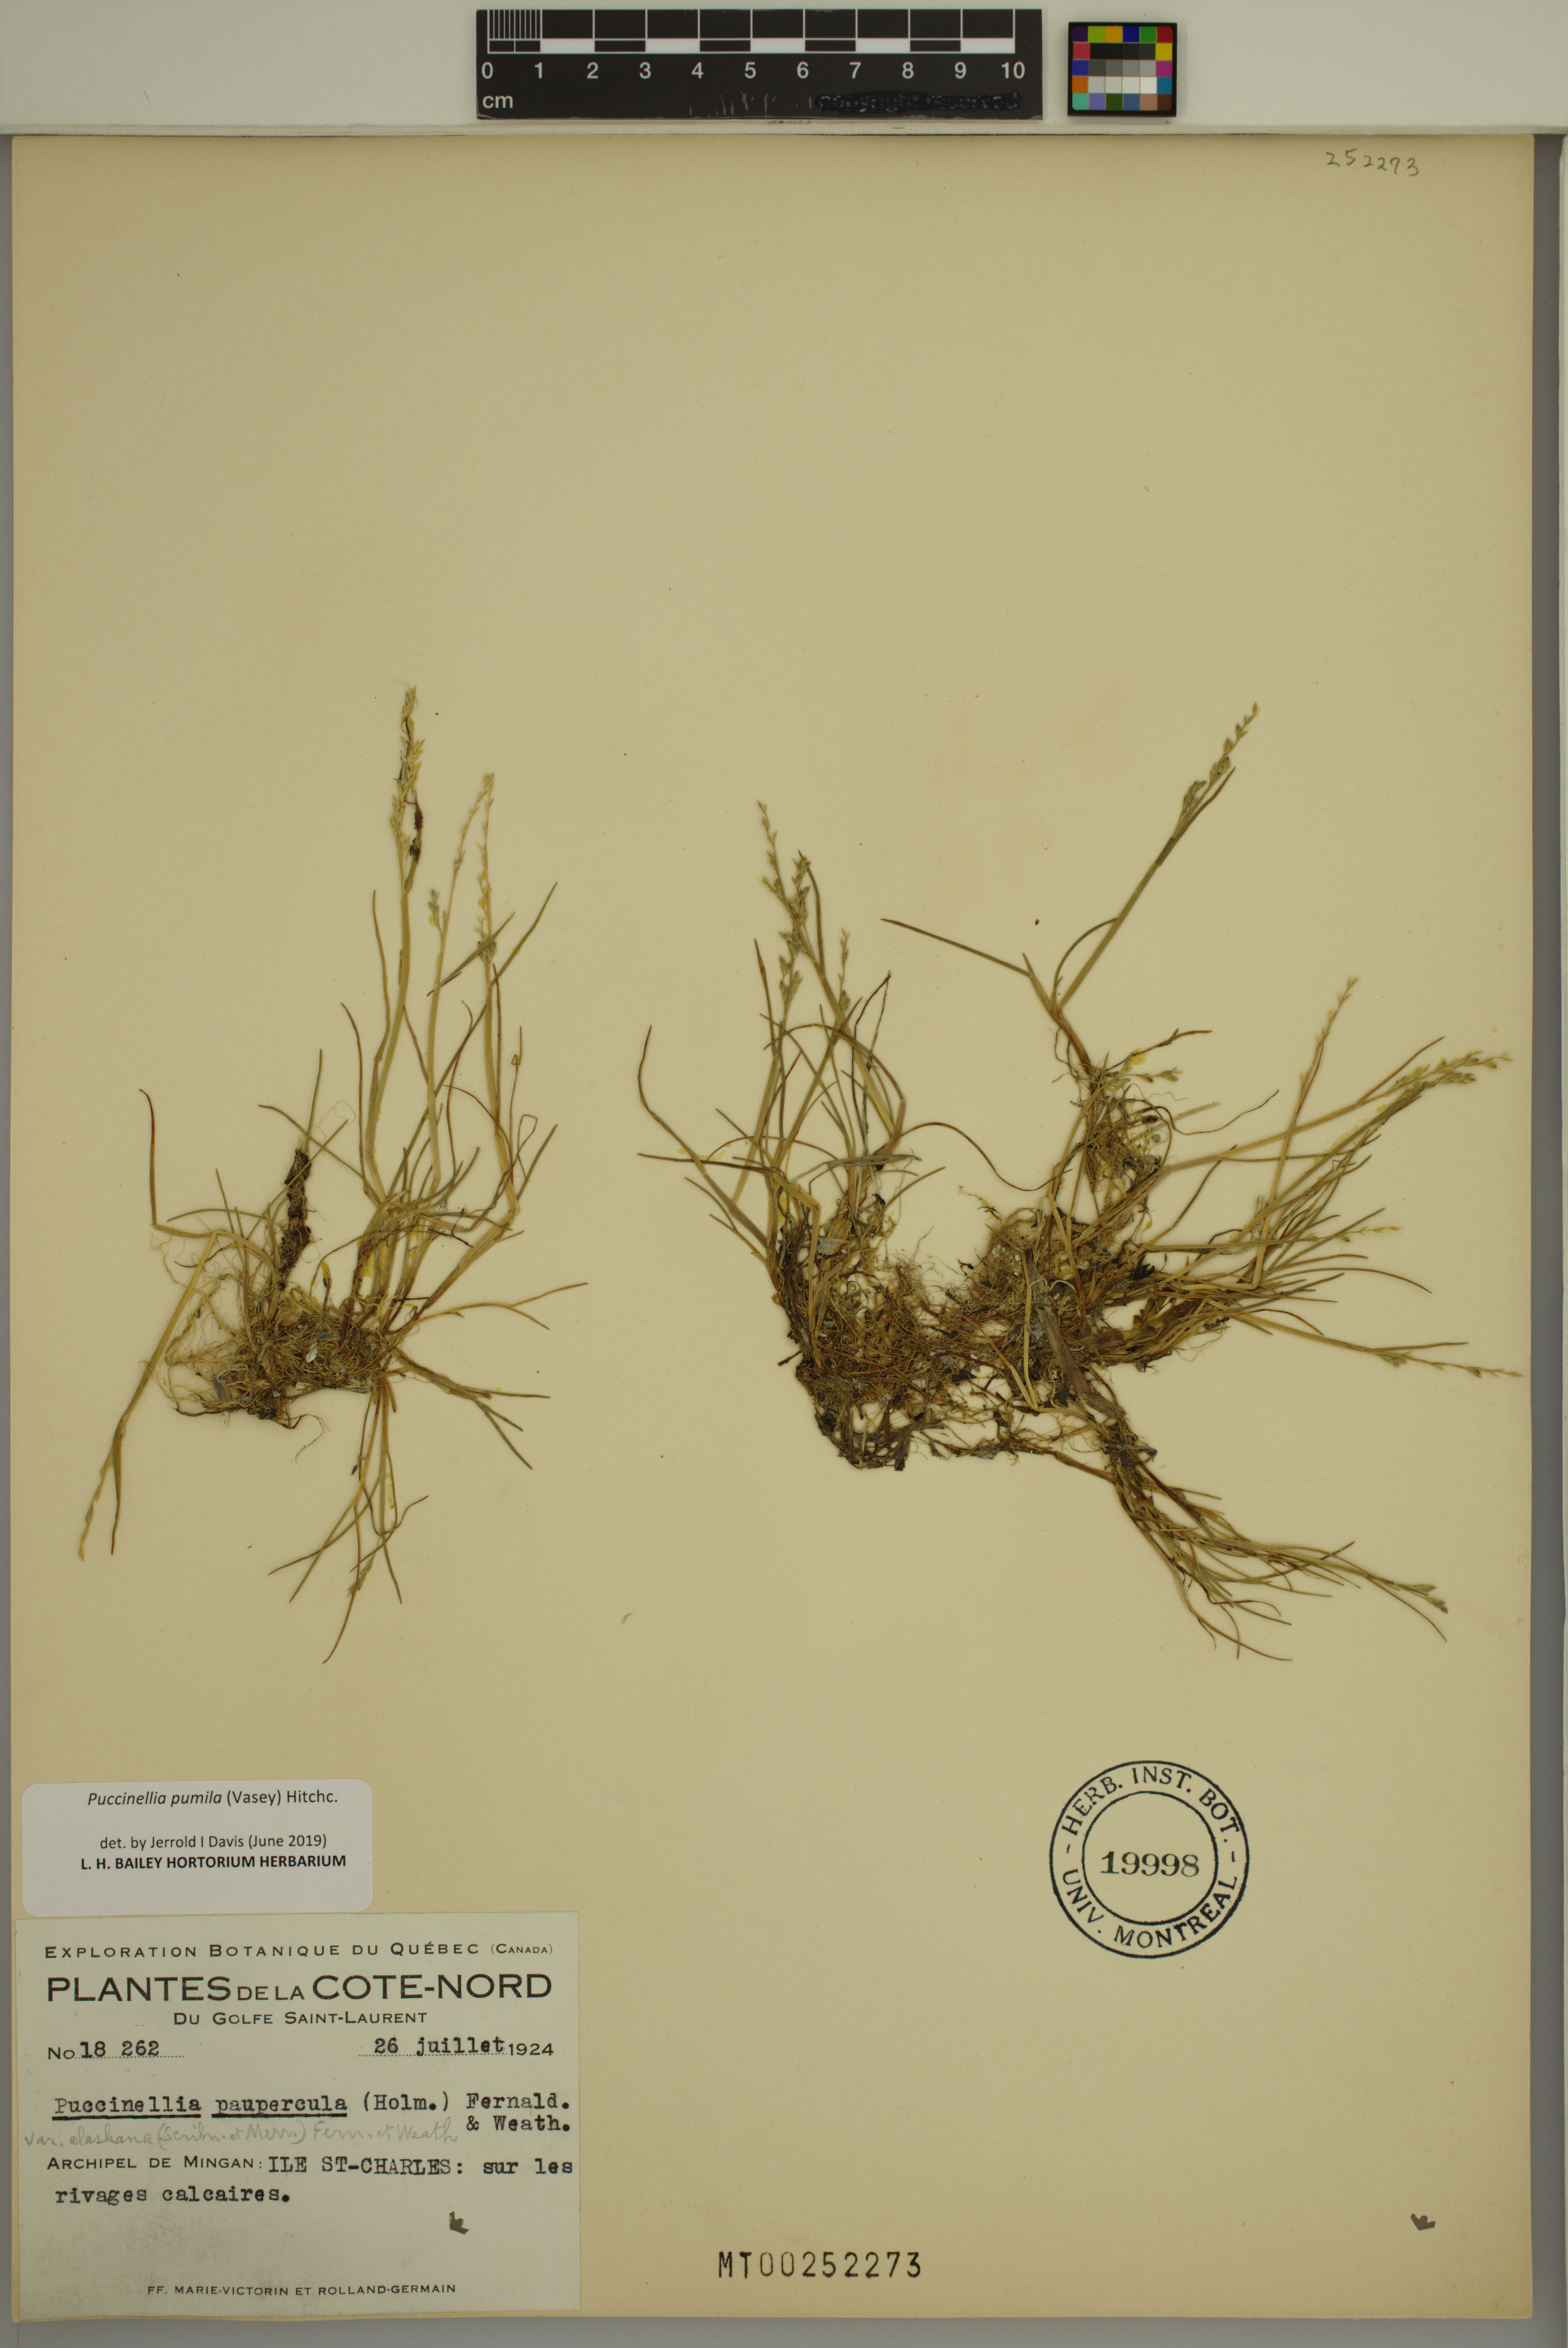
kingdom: Plantae
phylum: Tracheophyta
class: Liliopsida
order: Poales
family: Poaceae
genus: Puccinellia
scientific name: Puccinellia pumila
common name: Dwarf alkaligrass
